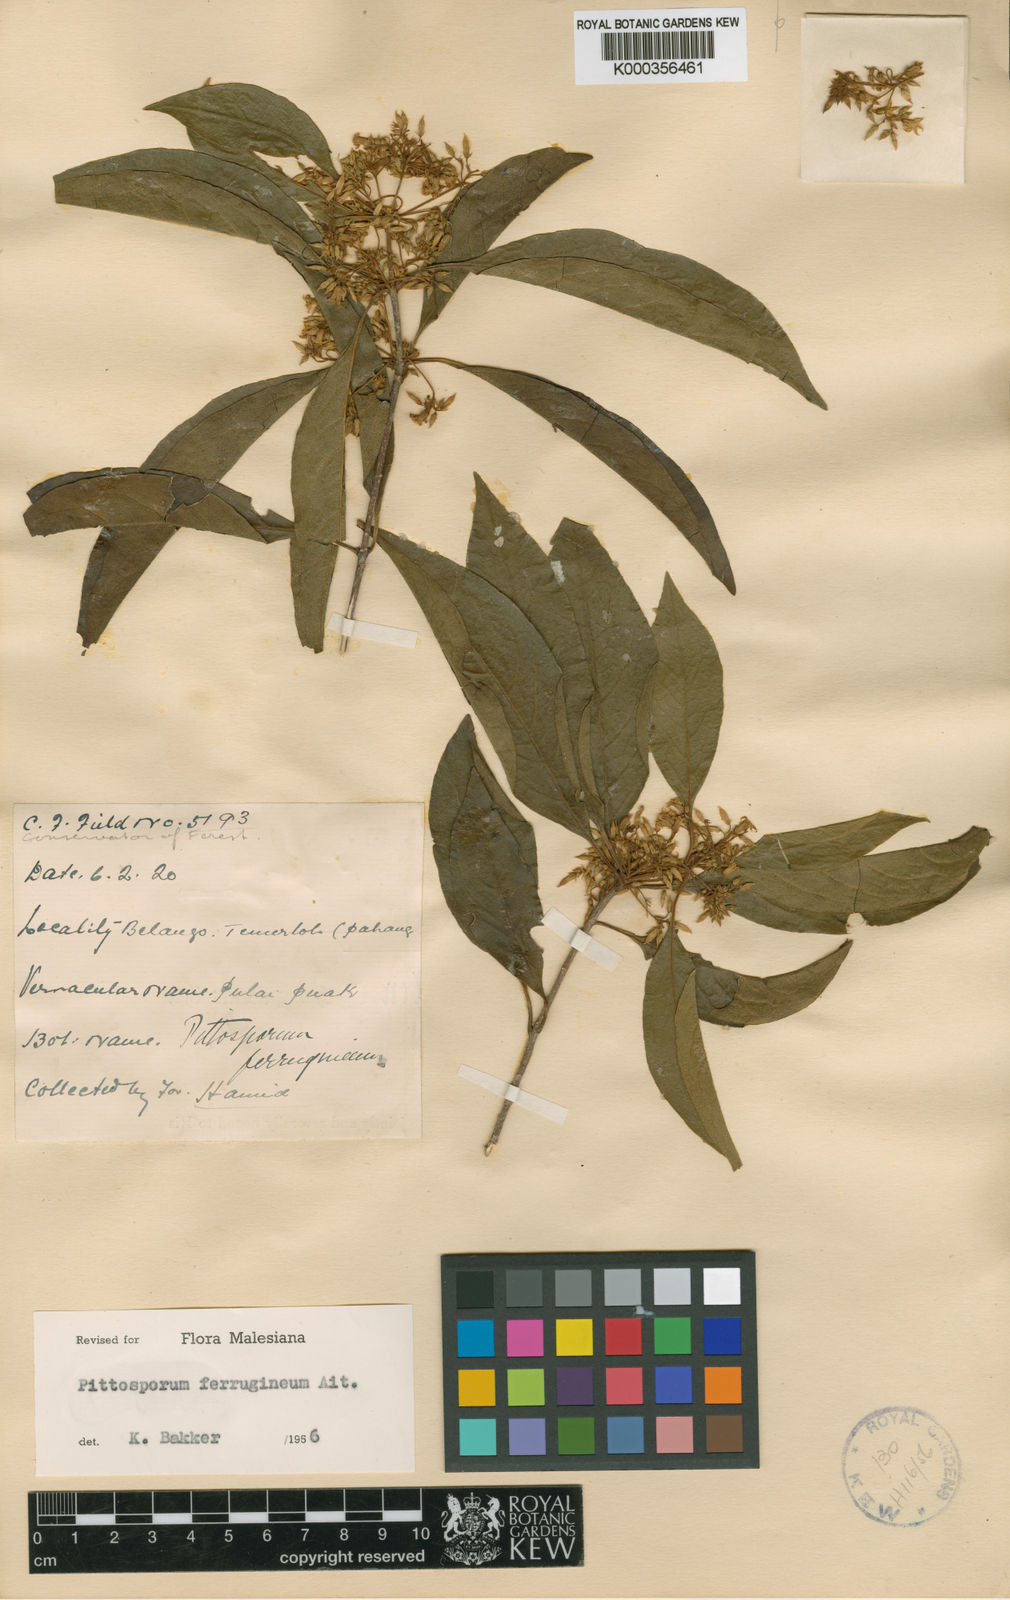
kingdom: Plantae
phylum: Tracheophyta
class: Magnoliopsida
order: Apiales
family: Pittosporaceae
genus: Pittosporum
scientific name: Pittosporum ferrugineum
